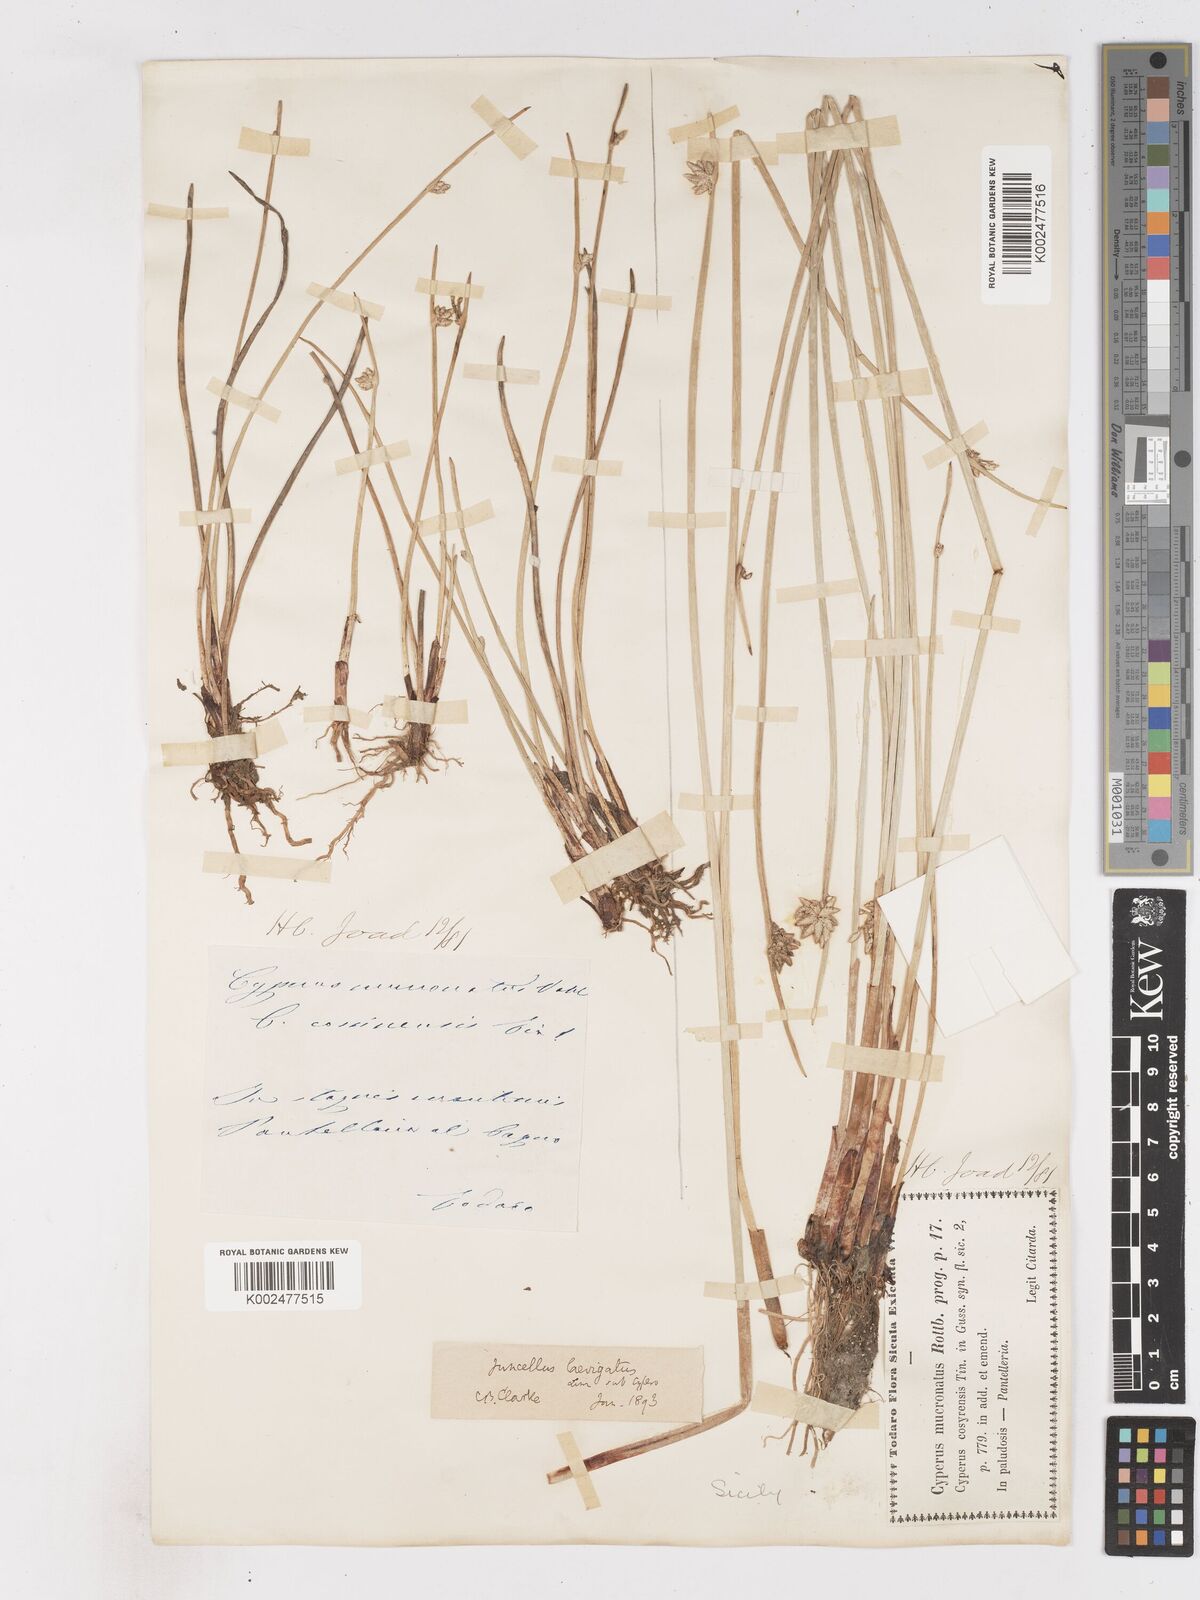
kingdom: Plantae
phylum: Tracheophyta
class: Liliopsida
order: Poales
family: Cyperaceae
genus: Cyperus
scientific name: Cyperus laevigatus
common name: Smooth flat sedge
